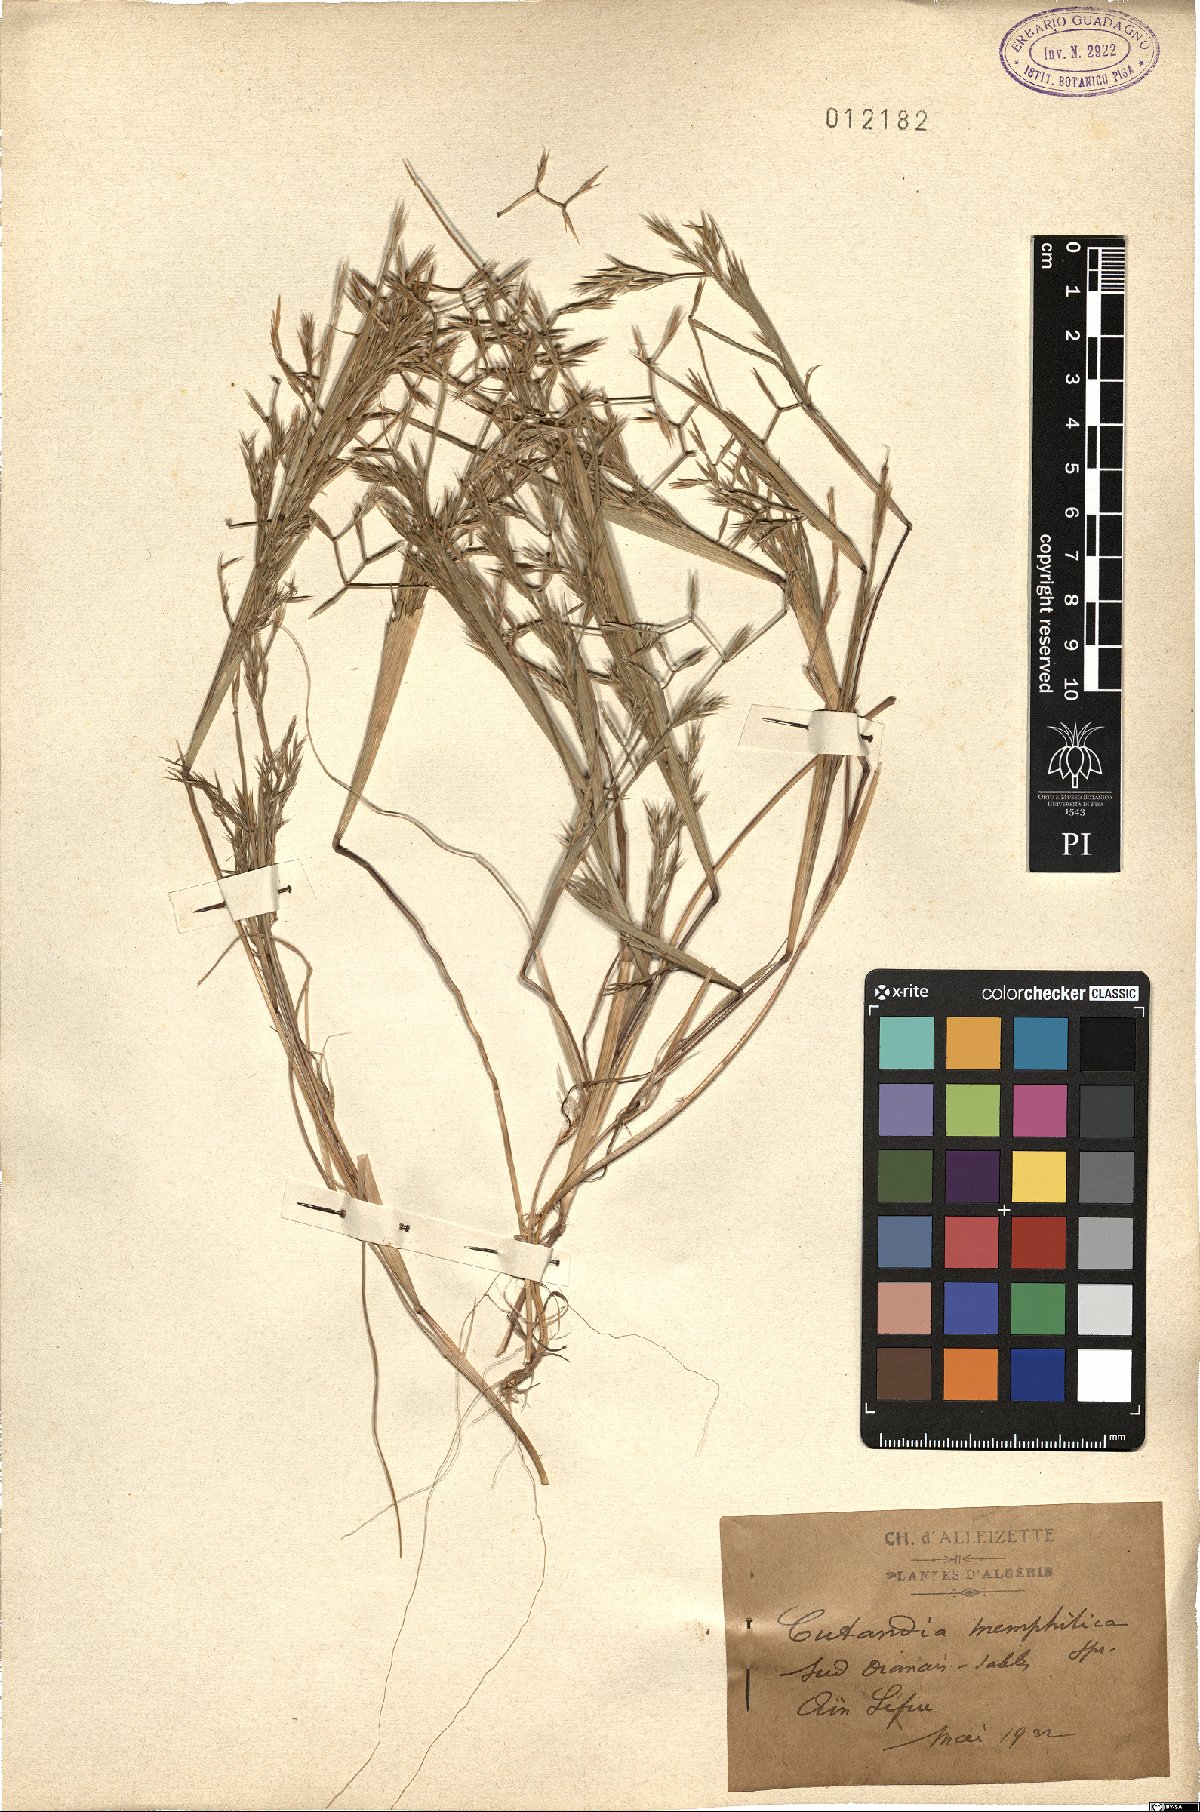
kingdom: Plantae
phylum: Tracheophyta
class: Liliopsida
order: Poales
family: Poaceae
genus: Cutandia
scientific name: Cutandia memphitica
